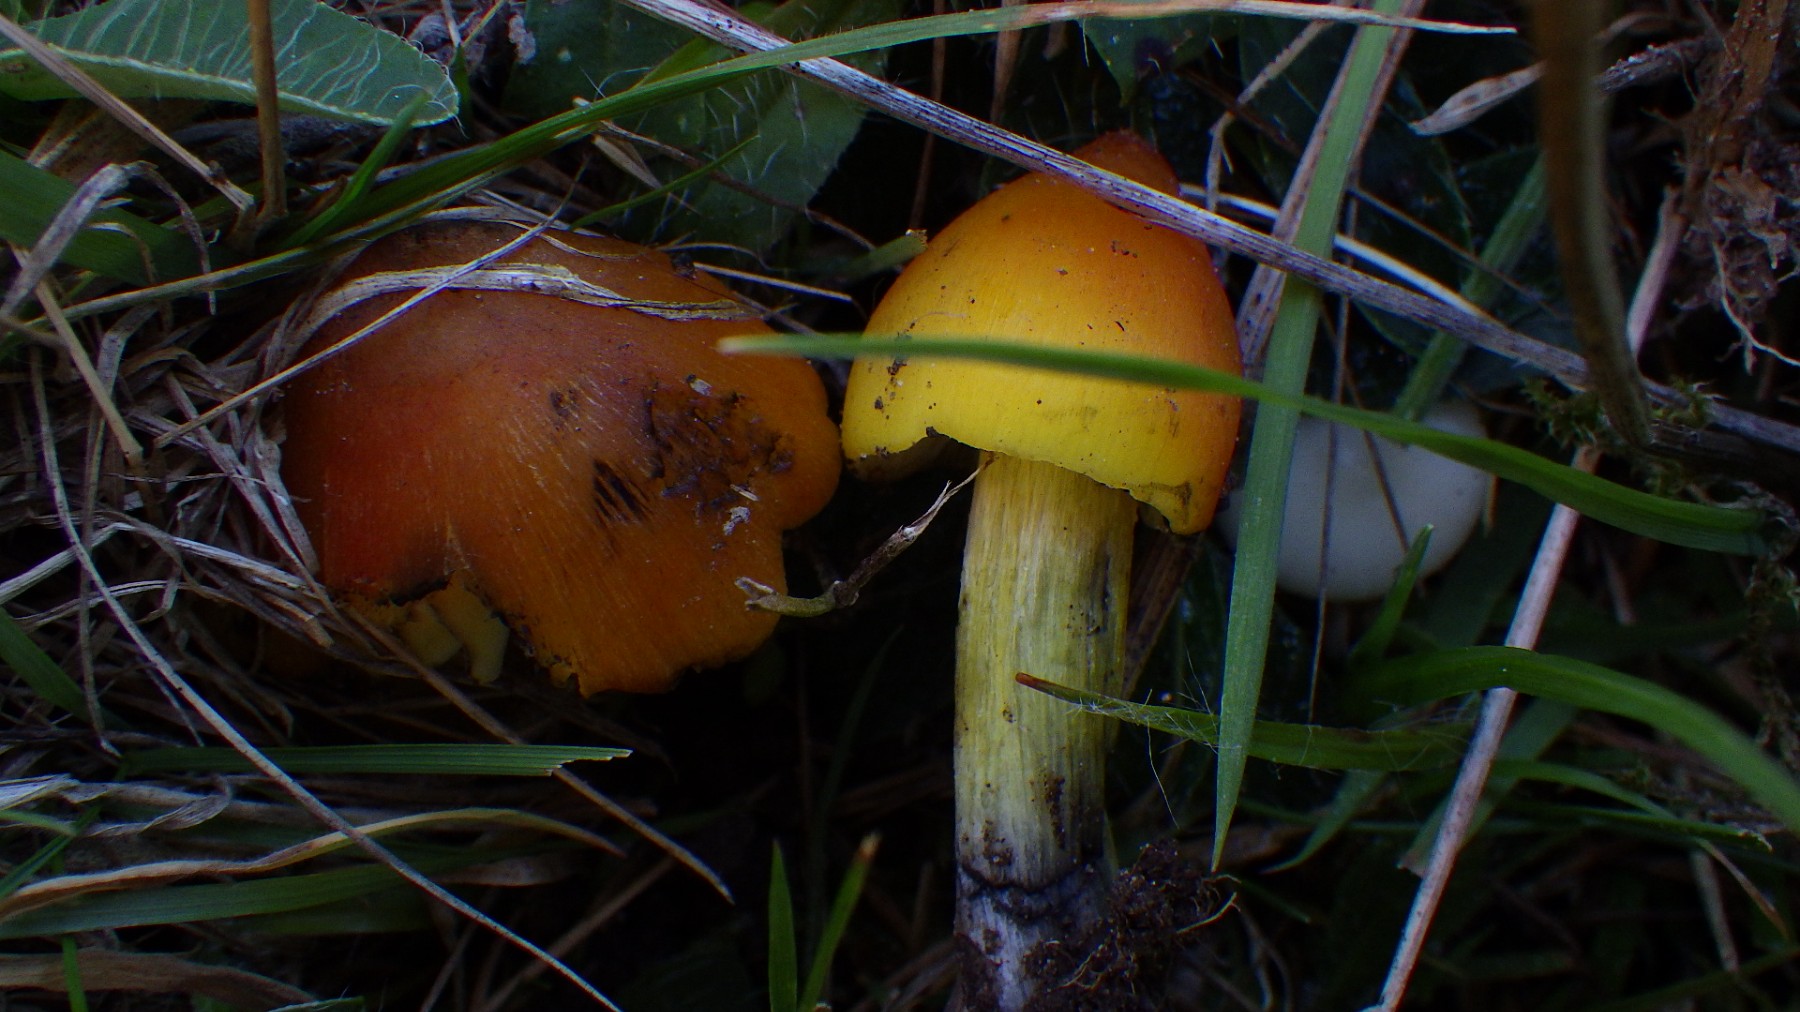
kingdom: Fungi
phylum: Basidiomycota
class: Agaricomycetes
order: Agaricales
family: Hygrophoraceae
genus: Hygrocybe
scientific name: Hygrocybe conica
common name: kegle-vokshat
